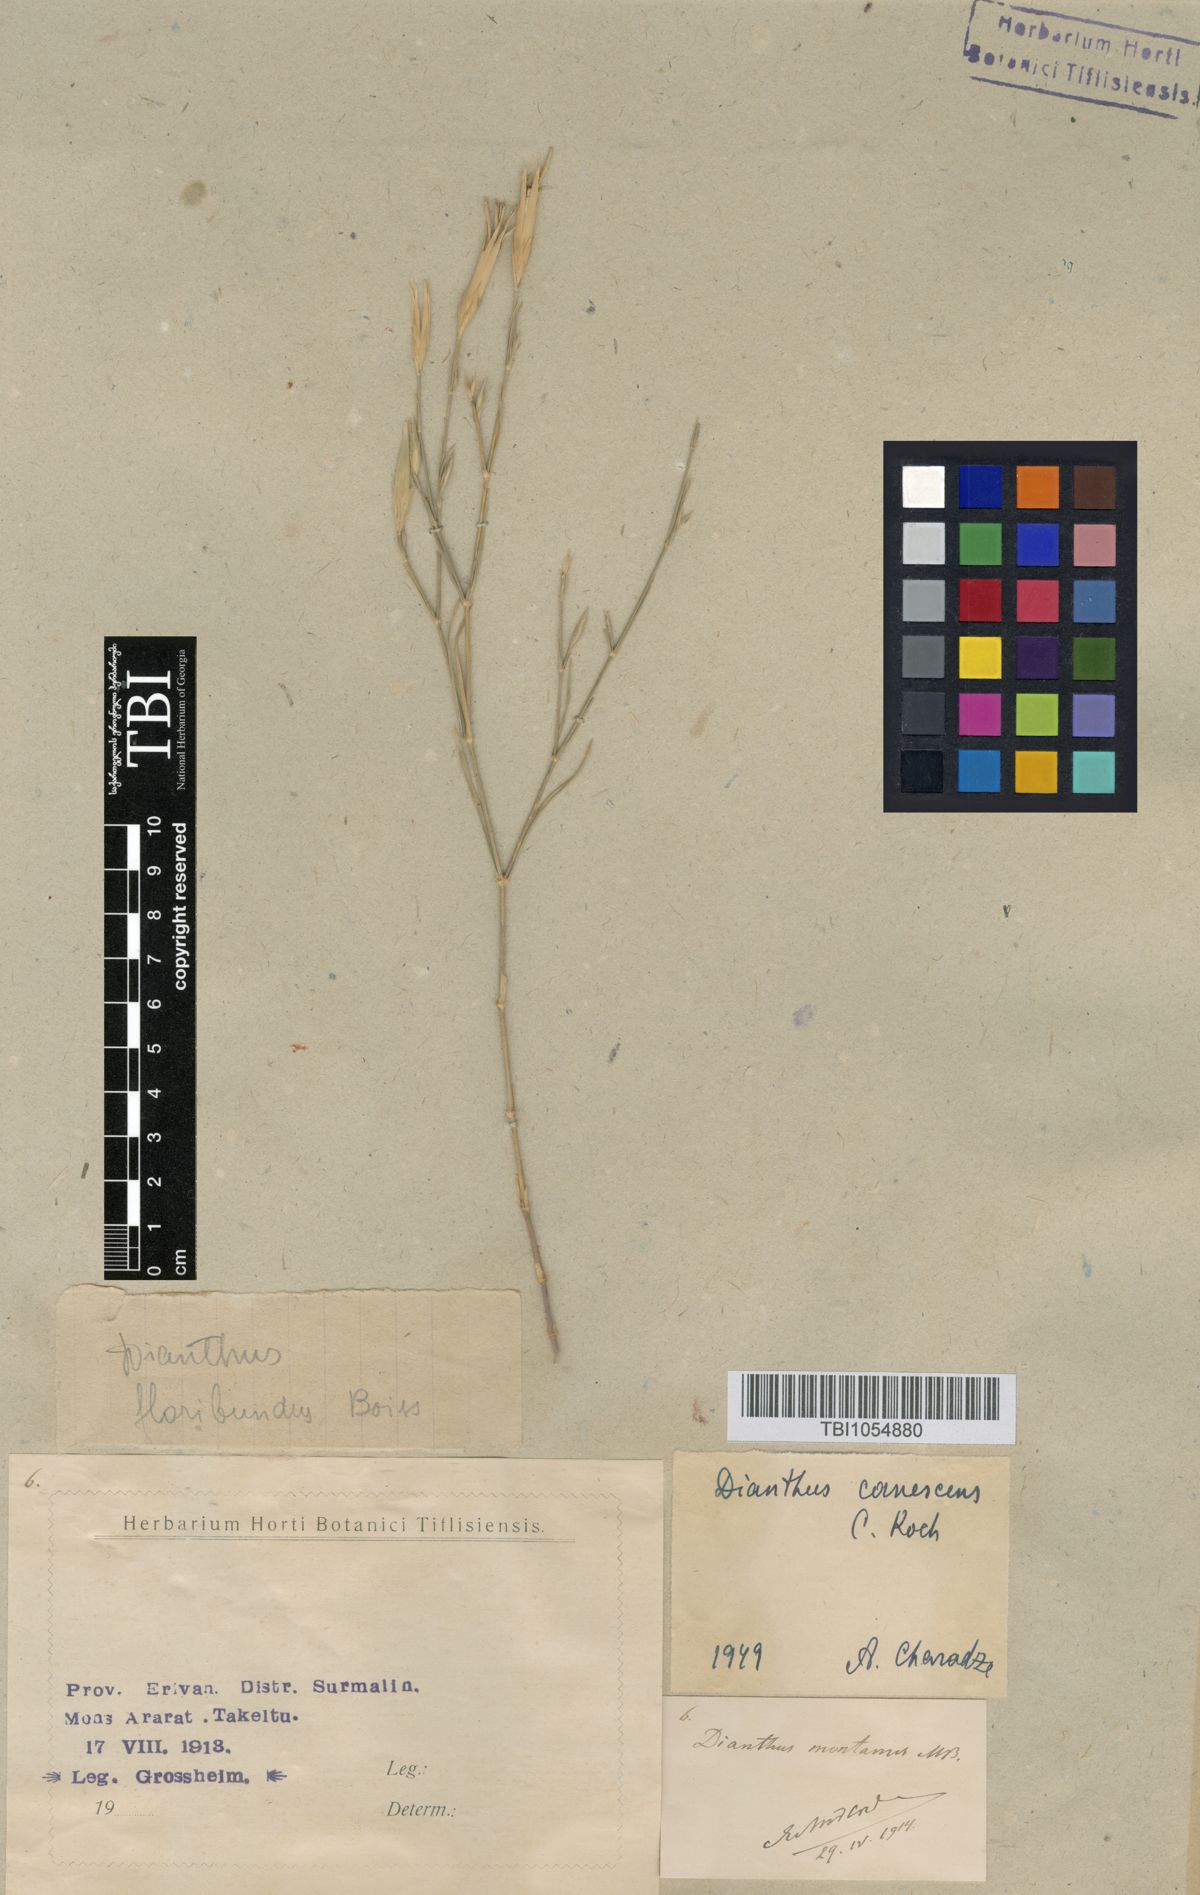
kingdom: Plantae
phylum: Tracheophyta
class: Magnoliopsida
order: Caryophyllales
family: Caryophyllaceae
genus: Dianthus
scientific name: Dianthus orientalis
